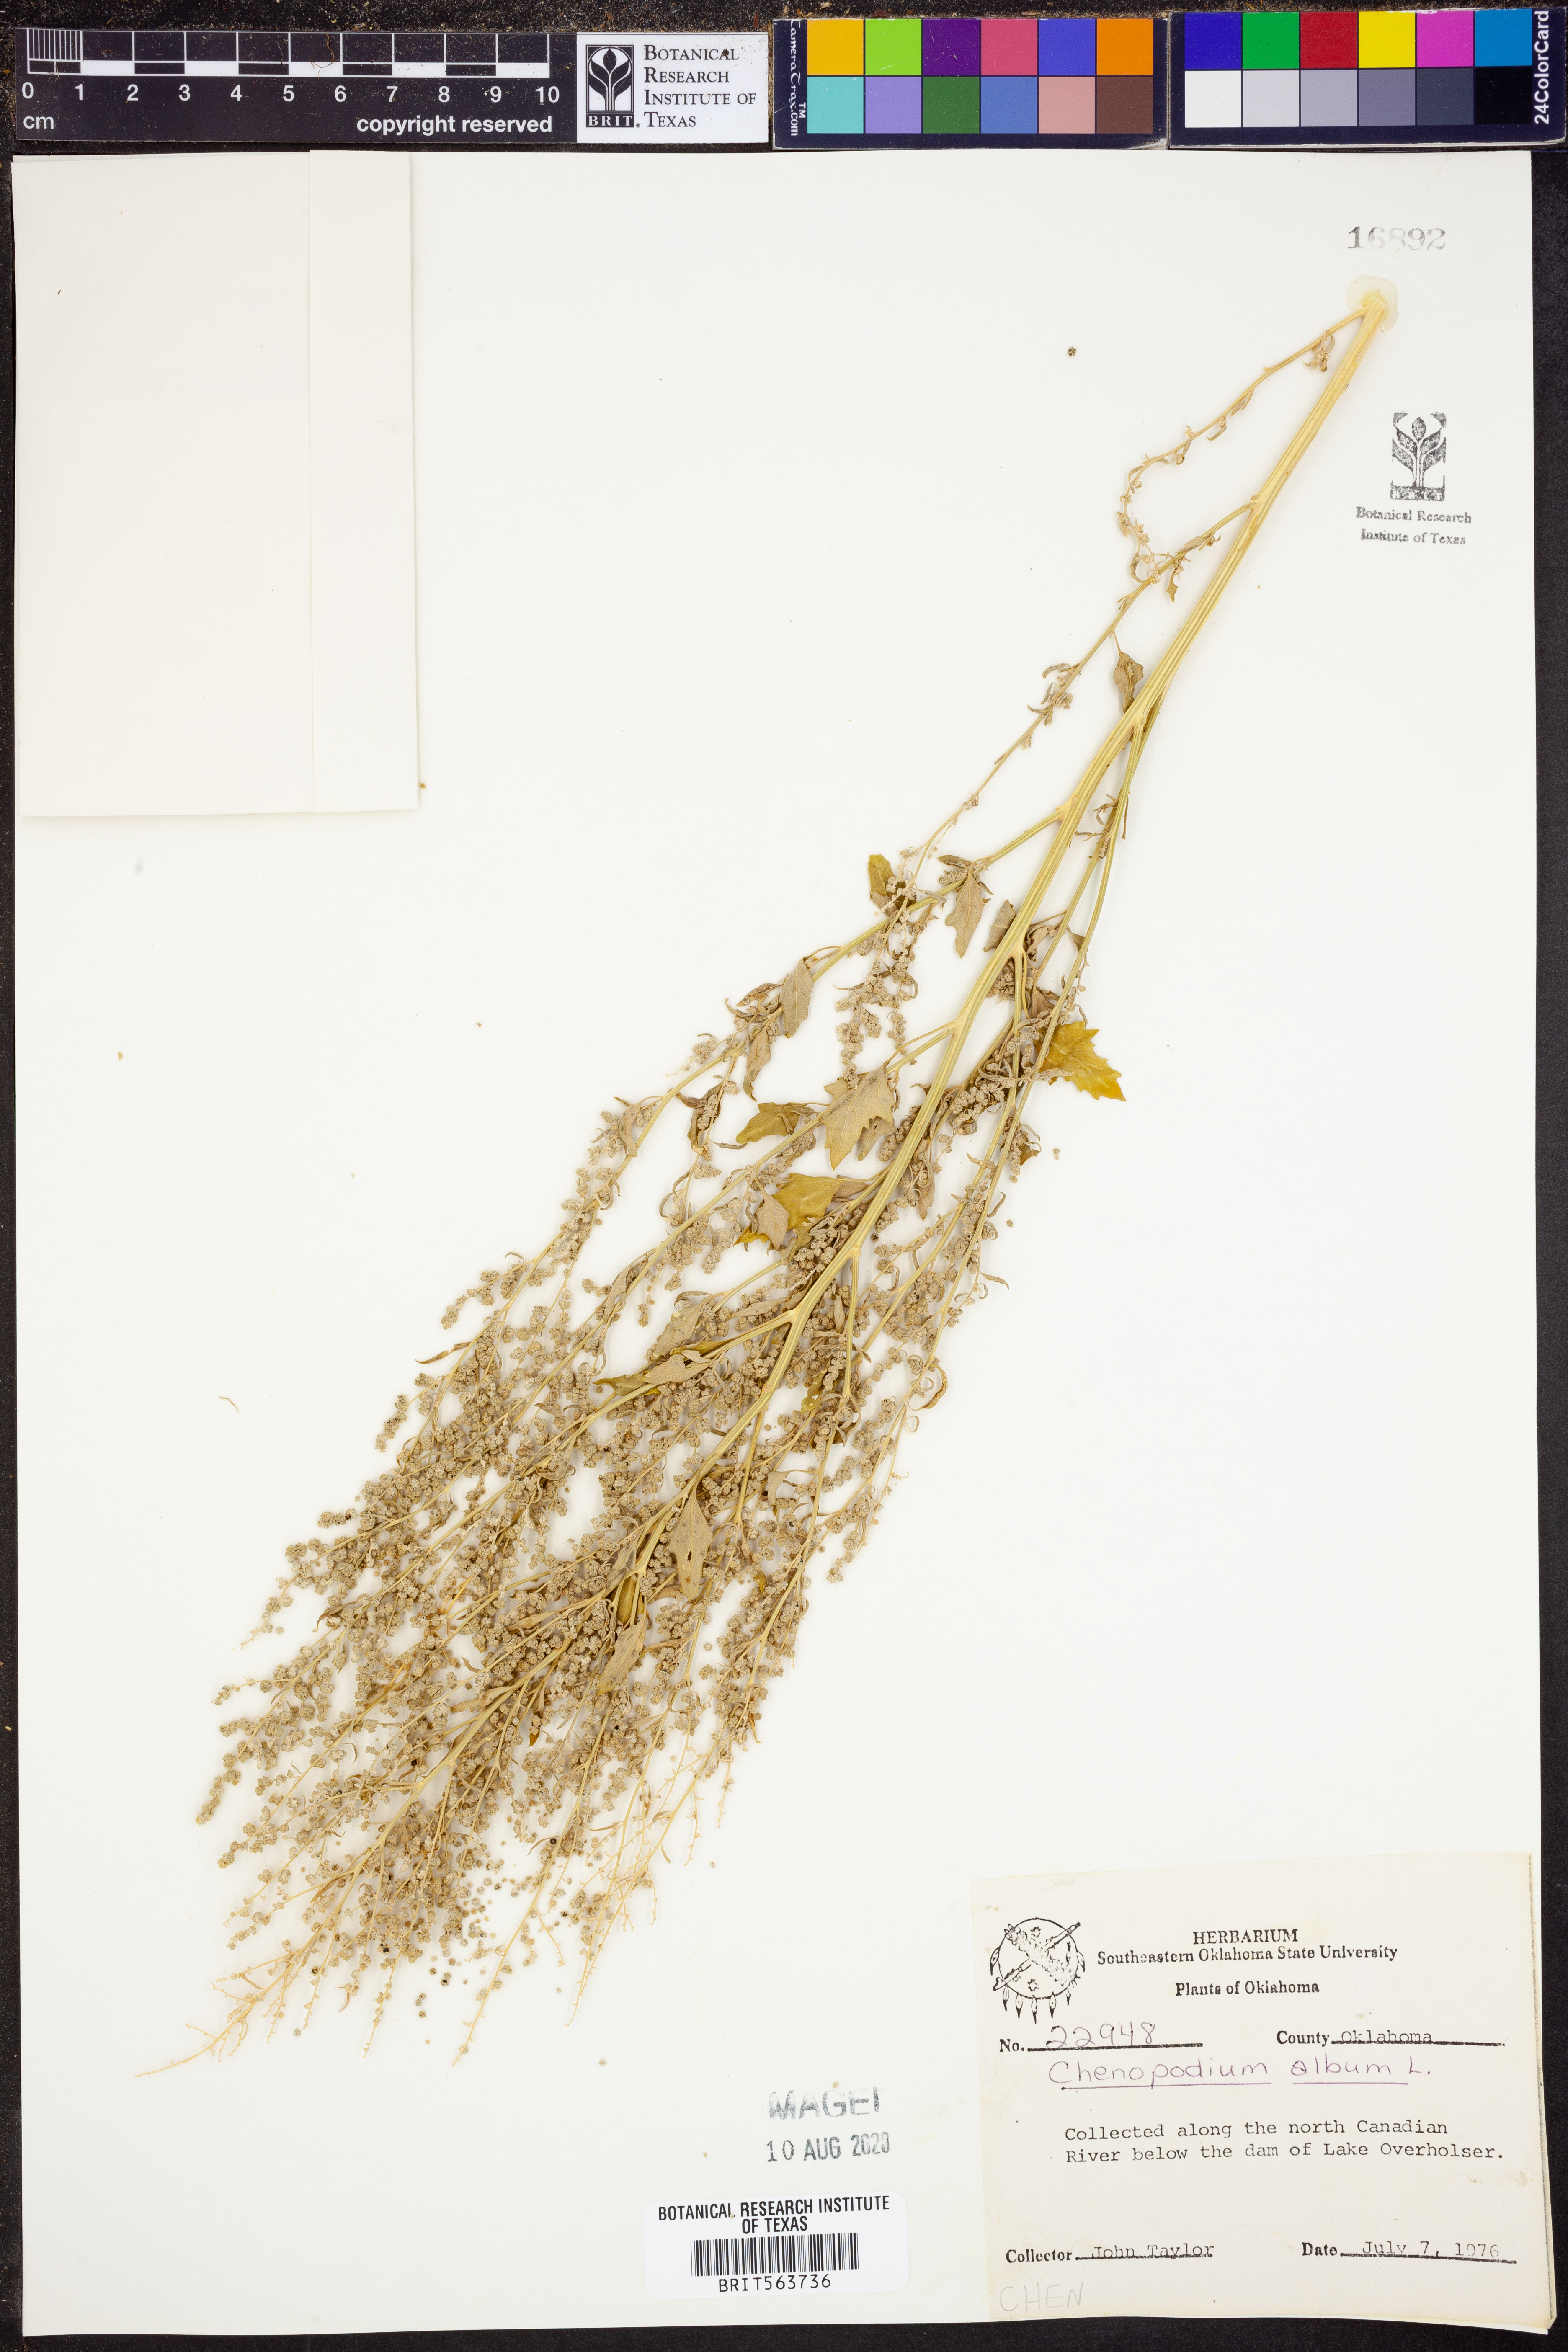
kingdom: Plantae
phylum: Tracheophyta
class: Magnoliopsida
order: Caryophyllales
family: Amaranthaceae
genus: Chenopodium
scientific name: Chenopodium album
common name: Fat-hen
